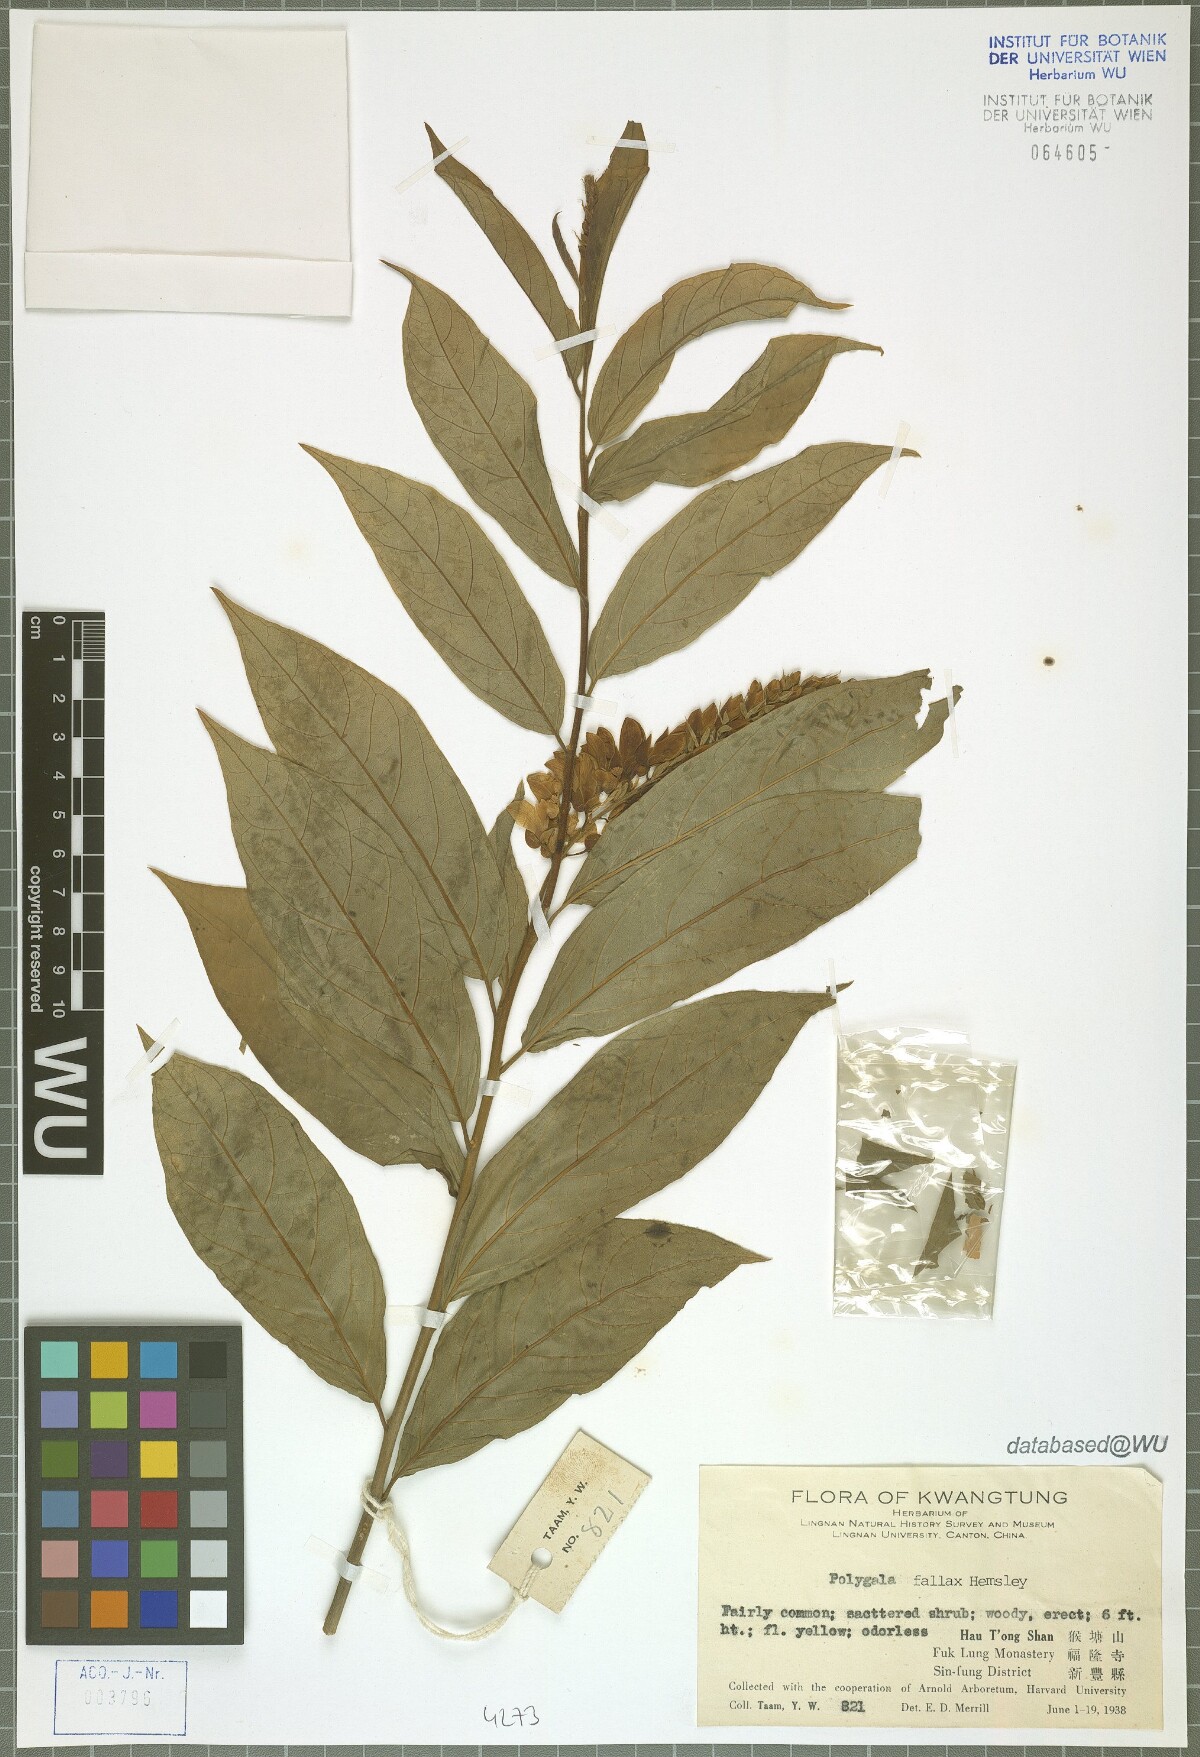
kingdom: Plantae
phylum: Tracheophyta
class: Magnoliopsida
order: Fabales
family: Polygalaceae
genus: Polygala
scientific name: Polygala forbesii
